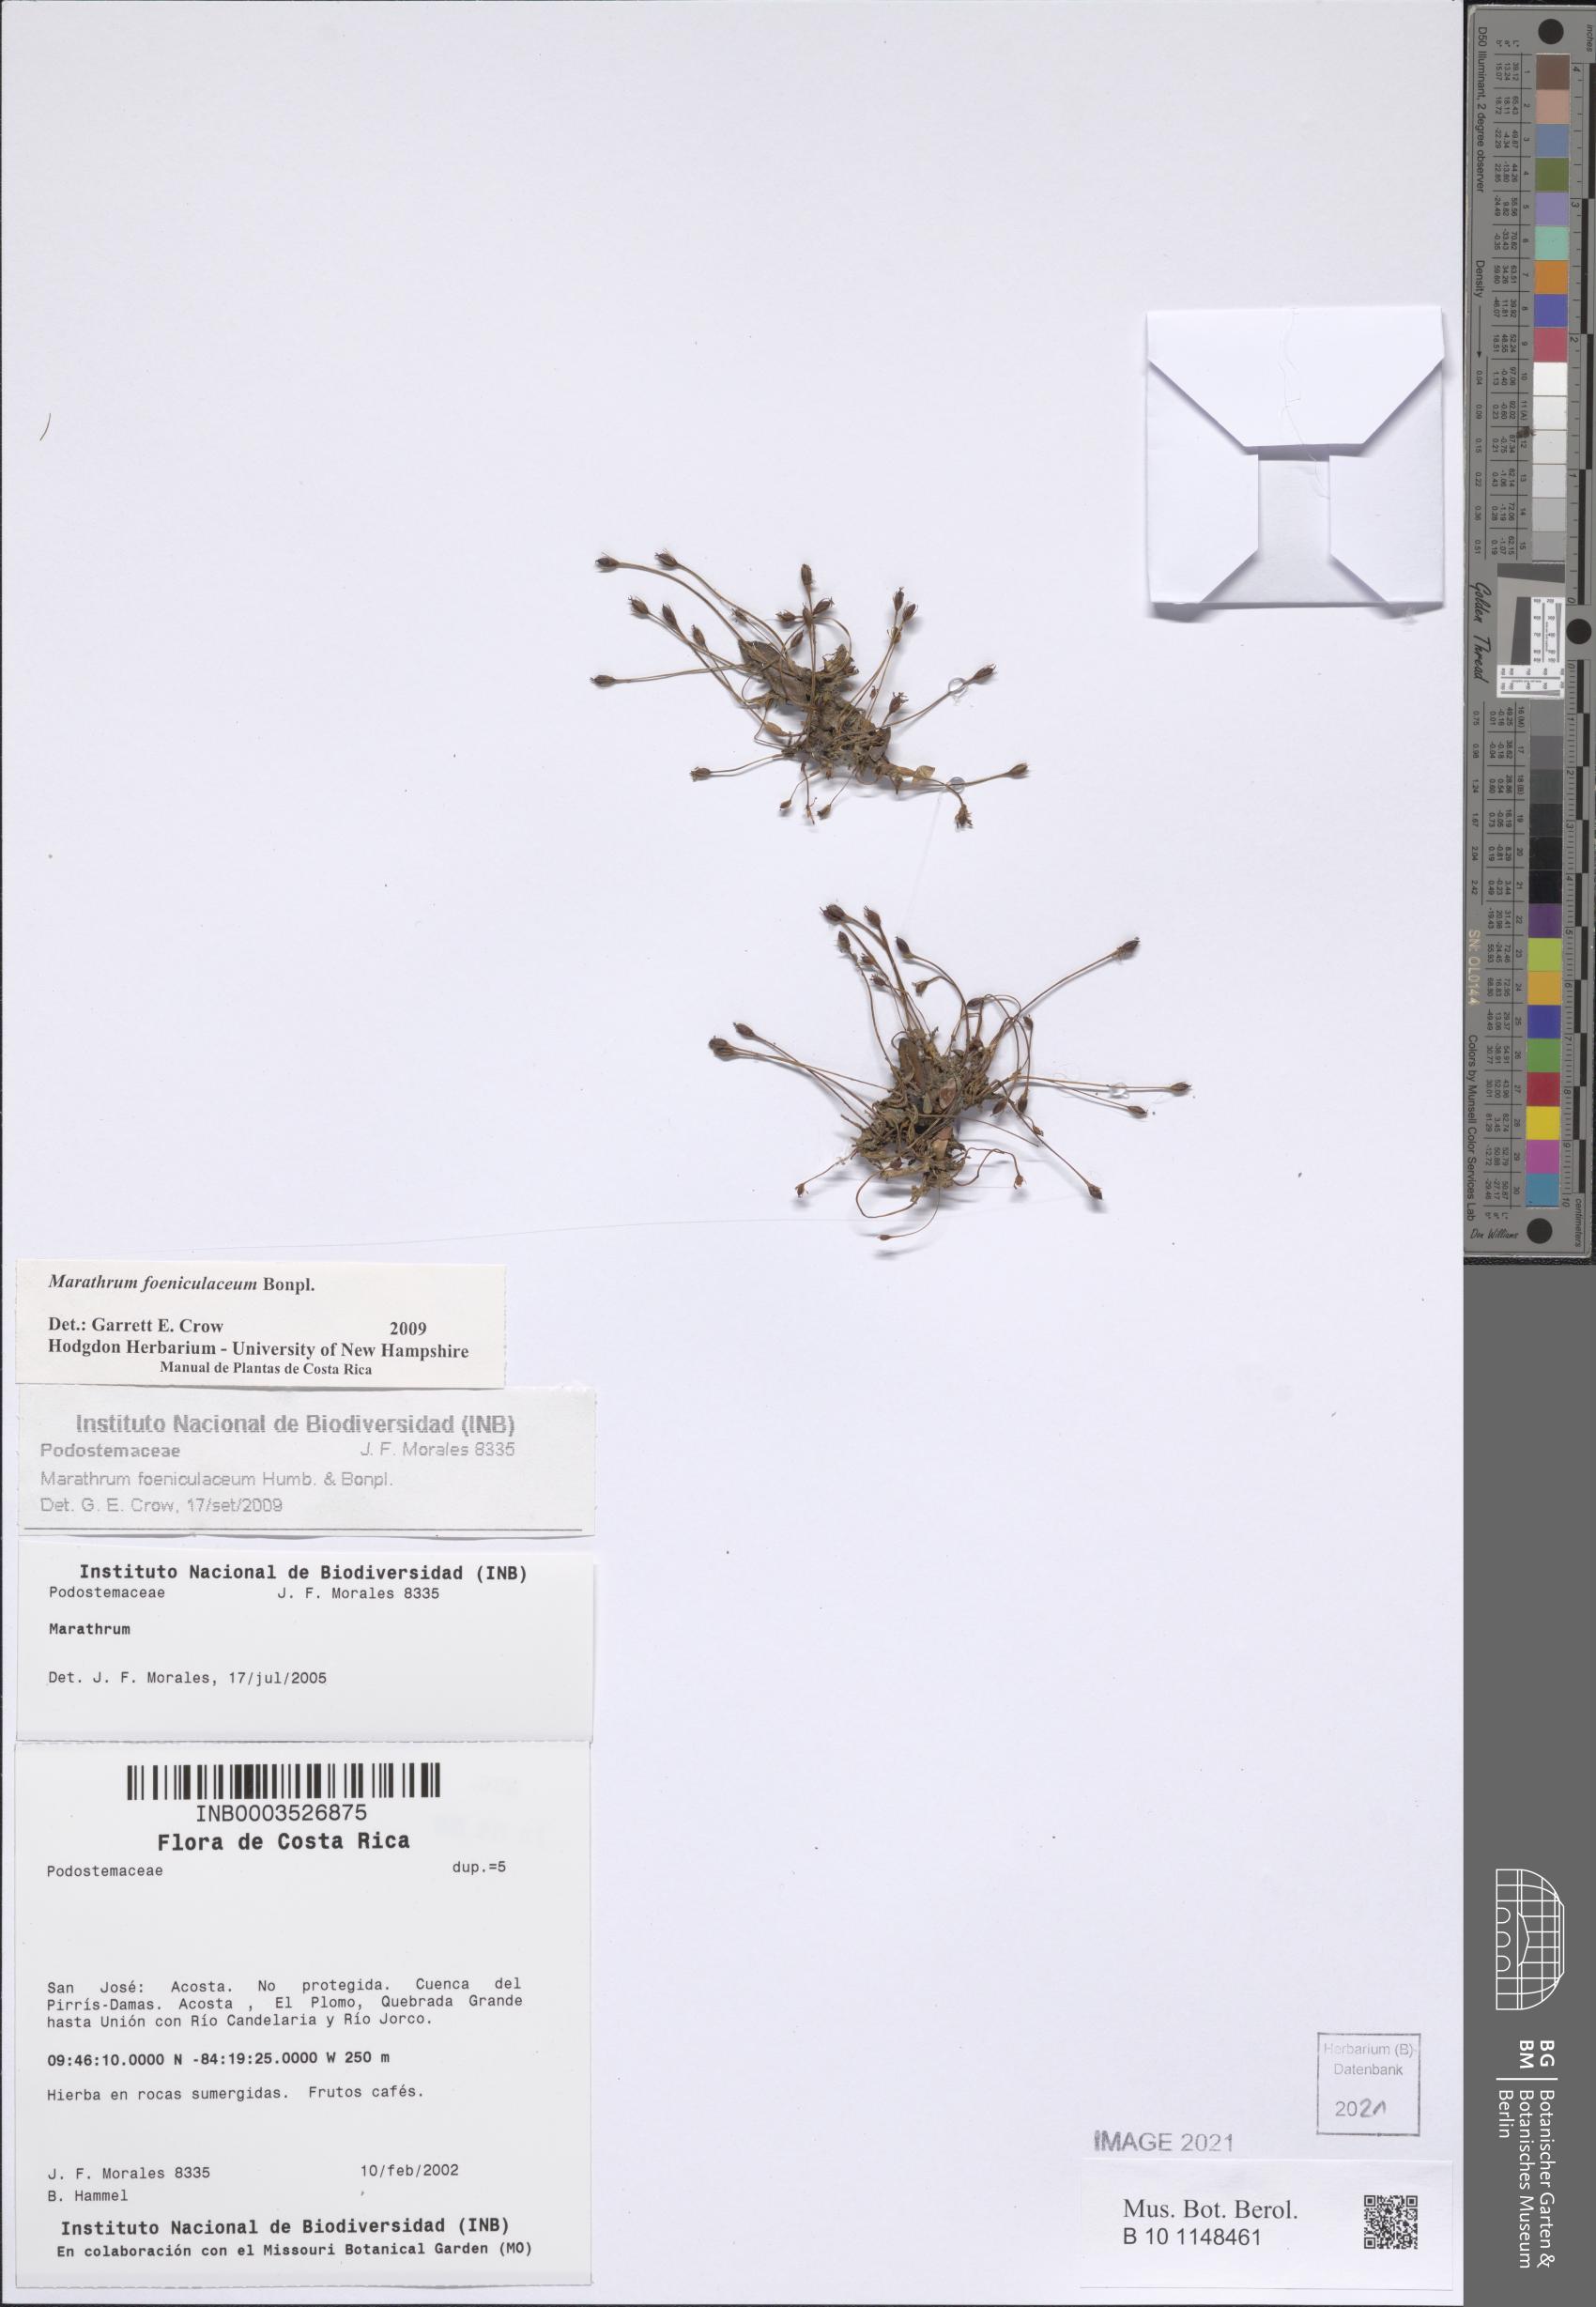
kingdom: Plantae
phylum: Tracheophyta
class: Magnoliopsida
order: Malpighiales
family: Podostemaceae
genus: Marathrum
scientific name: Marathrum foeniculaceum
